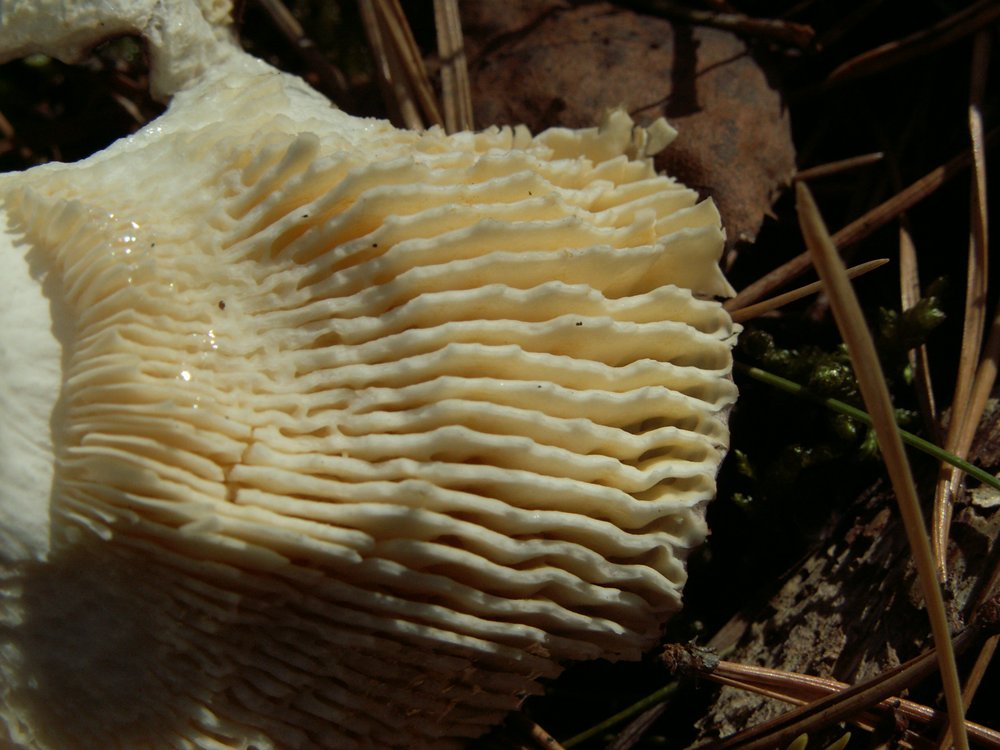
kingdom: Fungi
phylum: Basidiomycota
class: Agaricomycetes
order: Russulales
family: Russulaceae
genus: Russula
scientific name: Russula integra
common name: mandel-skørhat
